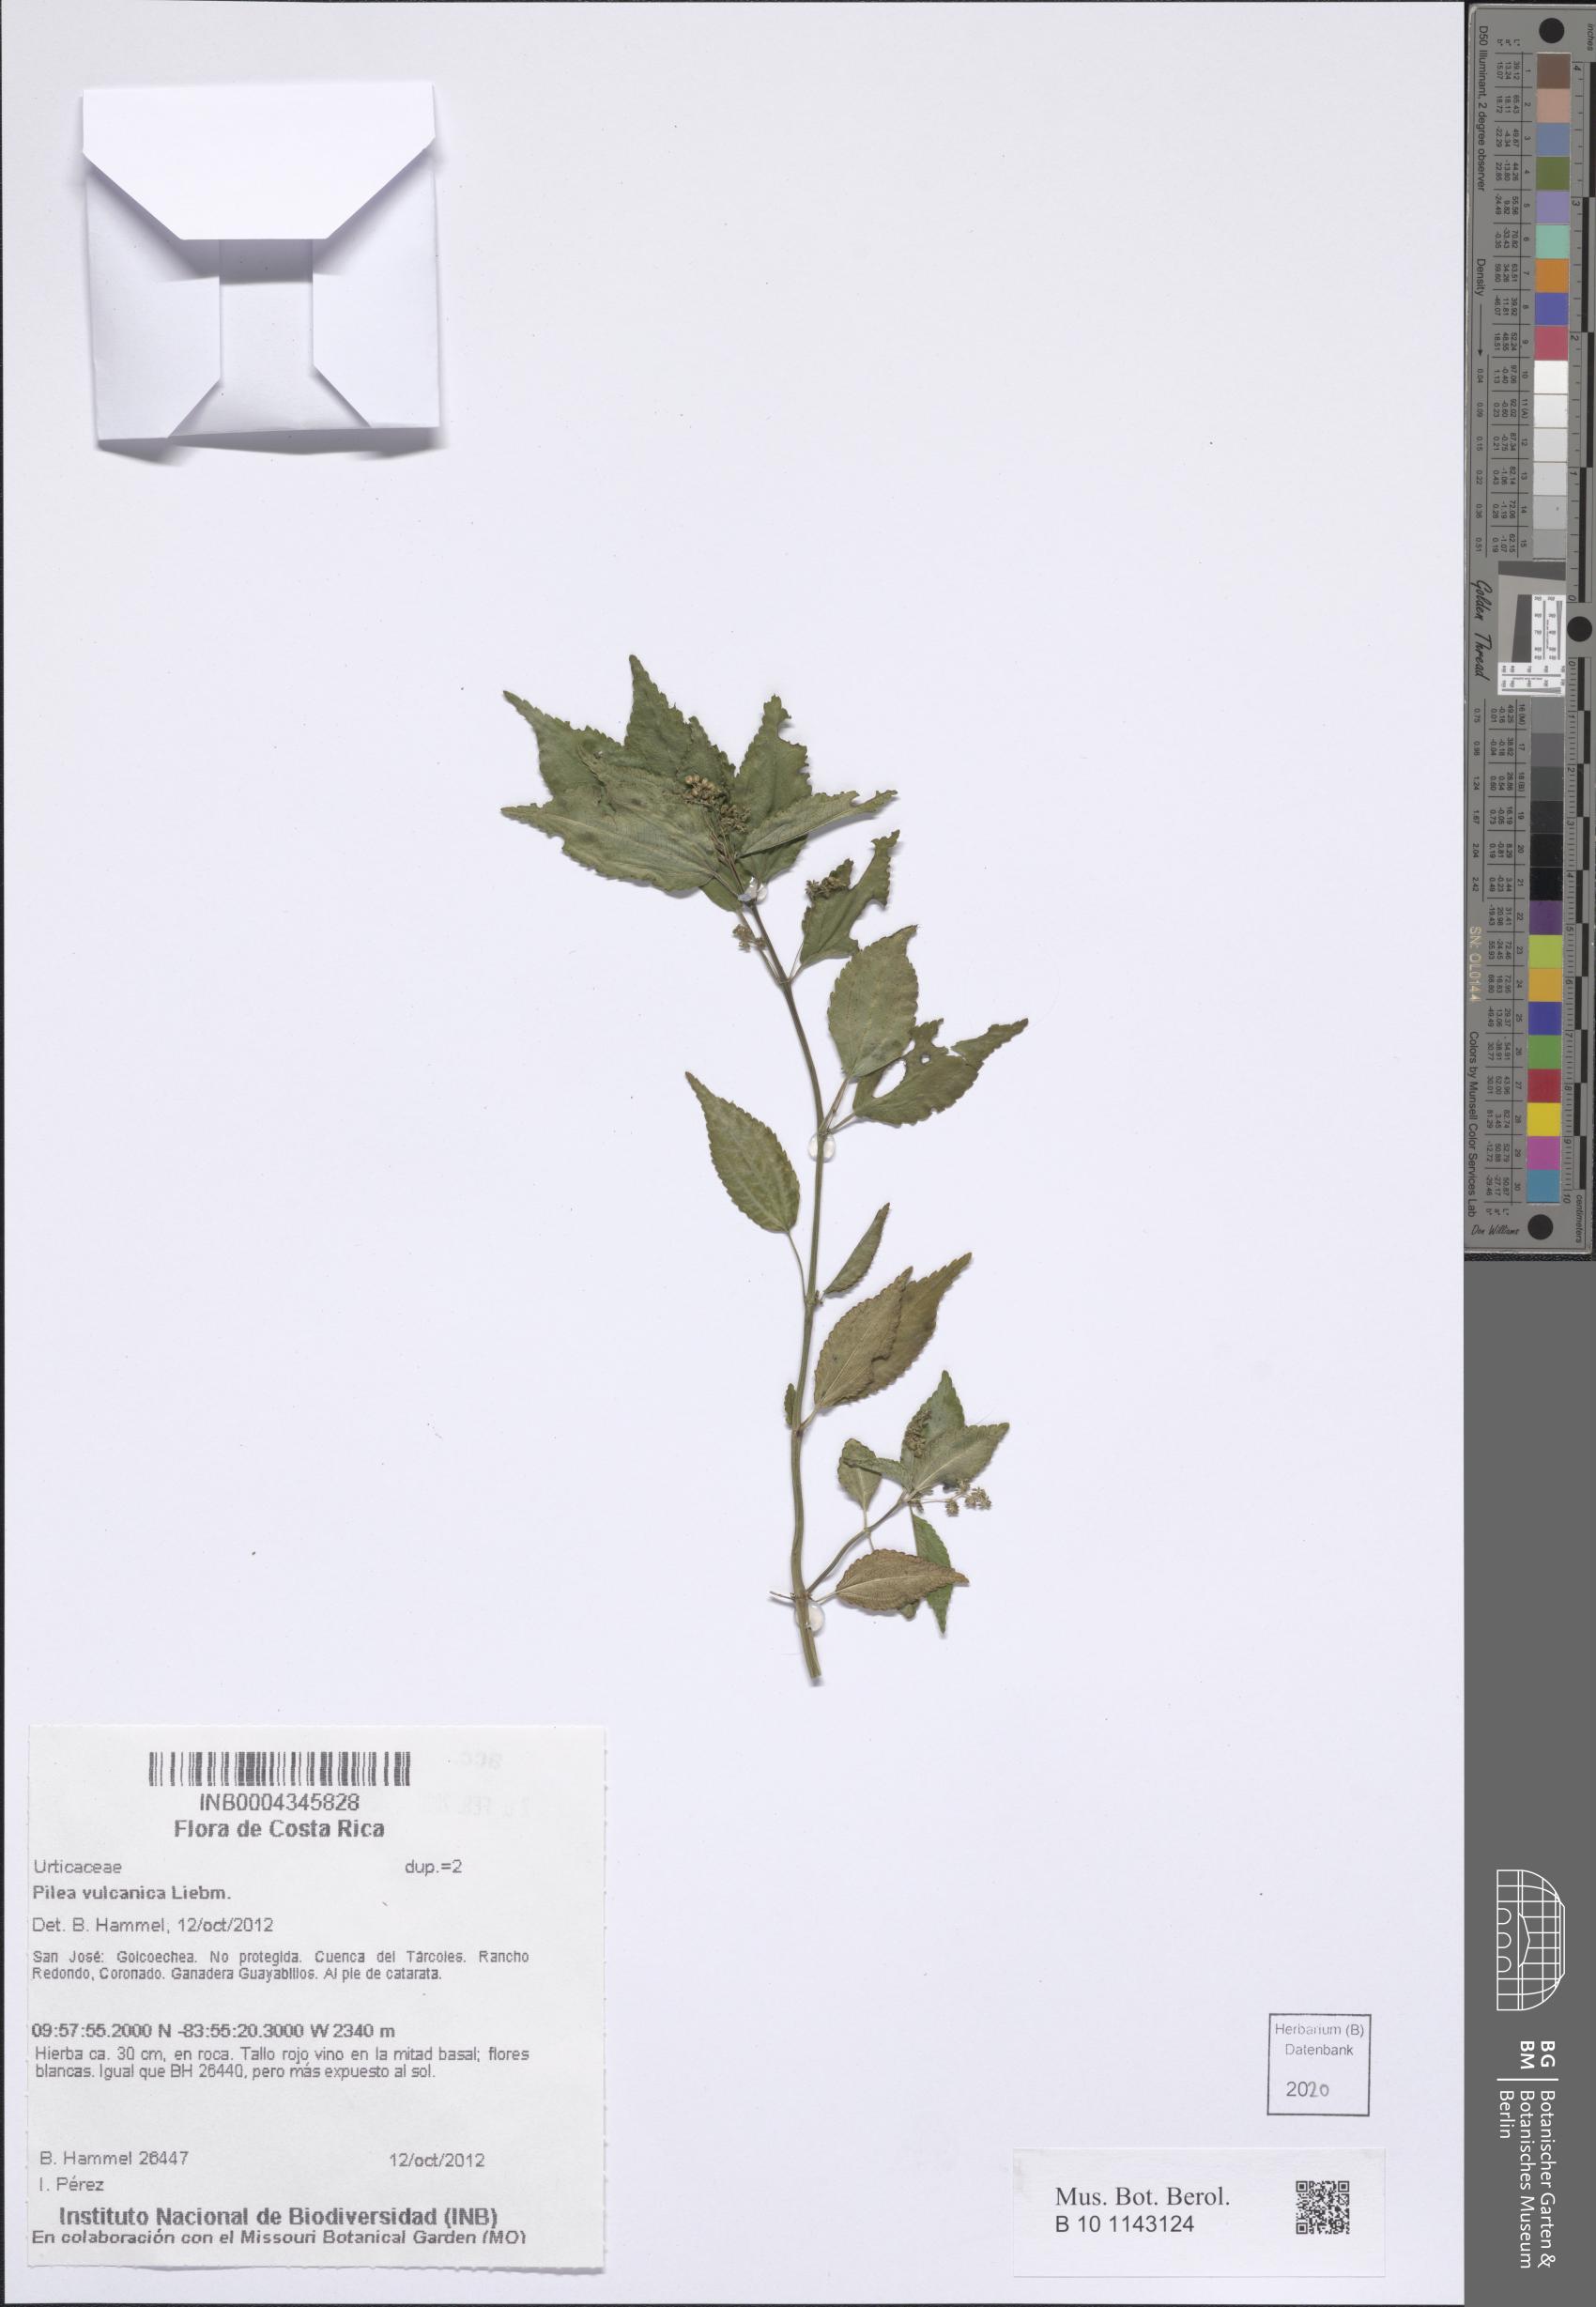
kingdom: Plantae
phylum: Tracheophyta
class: Magnoliopsida
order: Rosales
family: Urticaceae
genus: Pilea
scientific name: Pilea vulcanica
